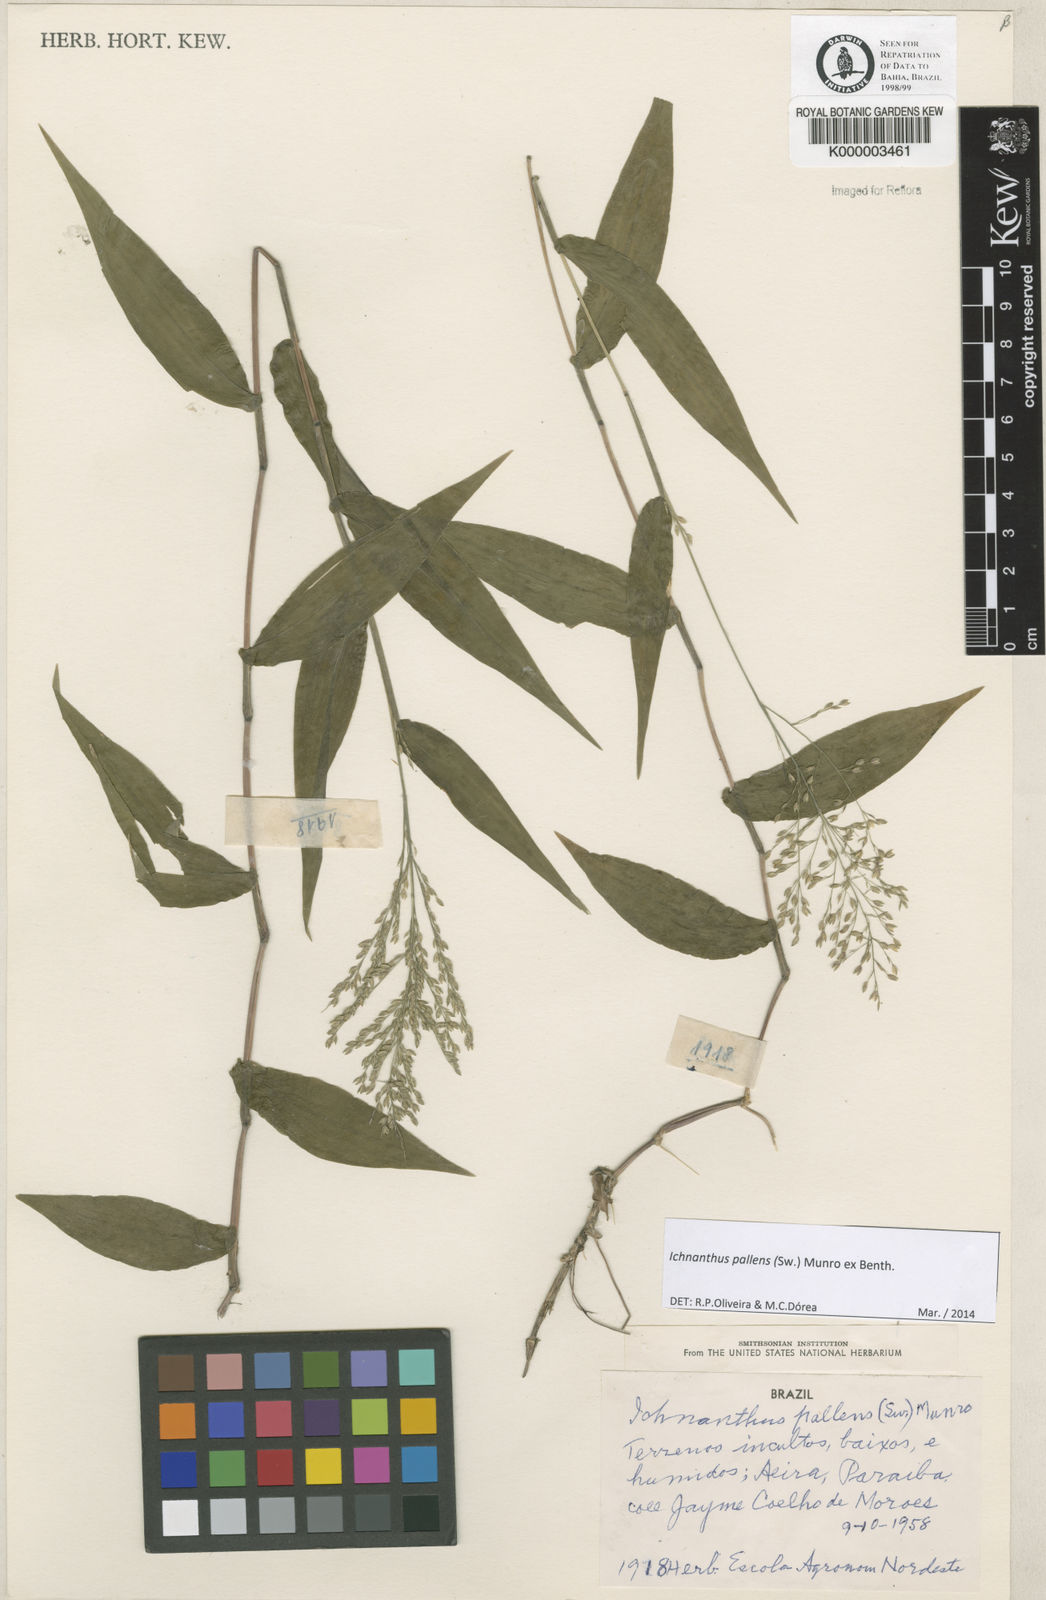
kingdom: Plantae
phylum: Tracheophyta
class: Liliopsida
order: Poales
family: Poaceae
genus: Ichnanthus
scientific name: Ichnanthus
